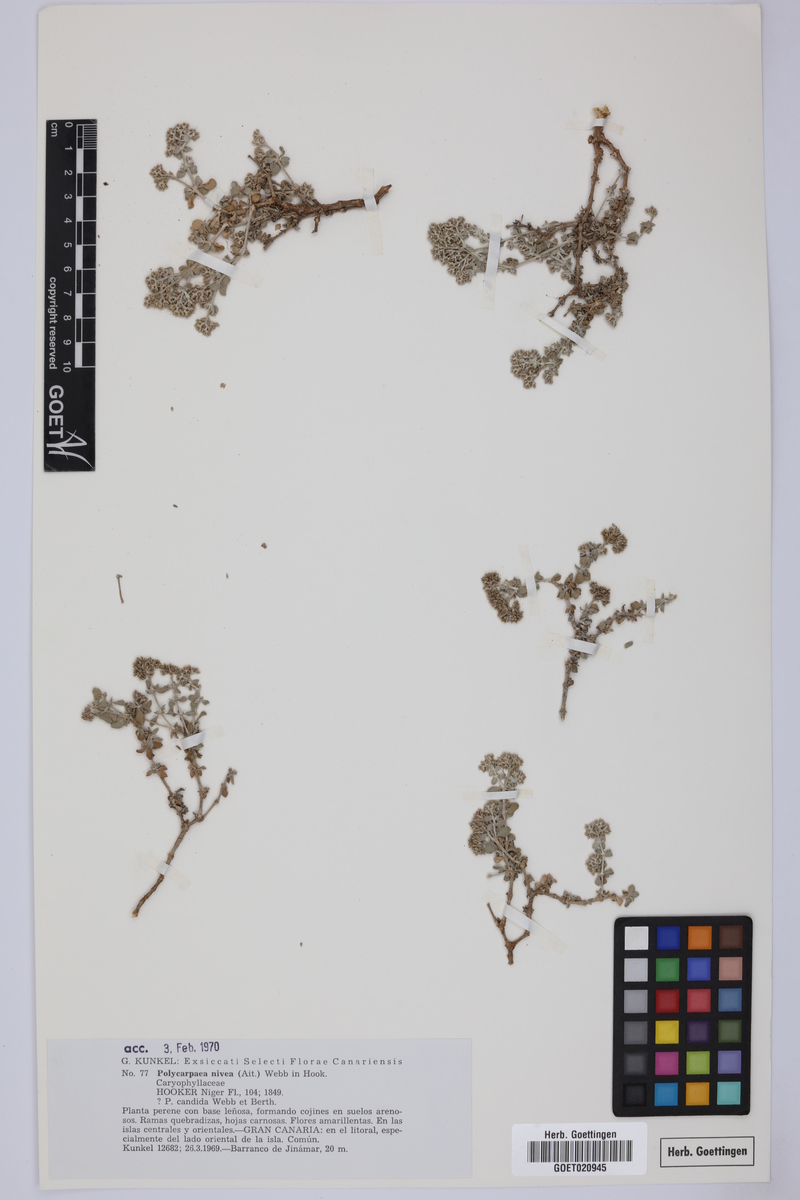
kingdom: Plantae
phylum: Tracheophyta
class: Magnoliopsida
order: Caryophyllales
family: Caryophyllaceae
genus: Polycarpaea
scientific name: Polycarpaea nivea
